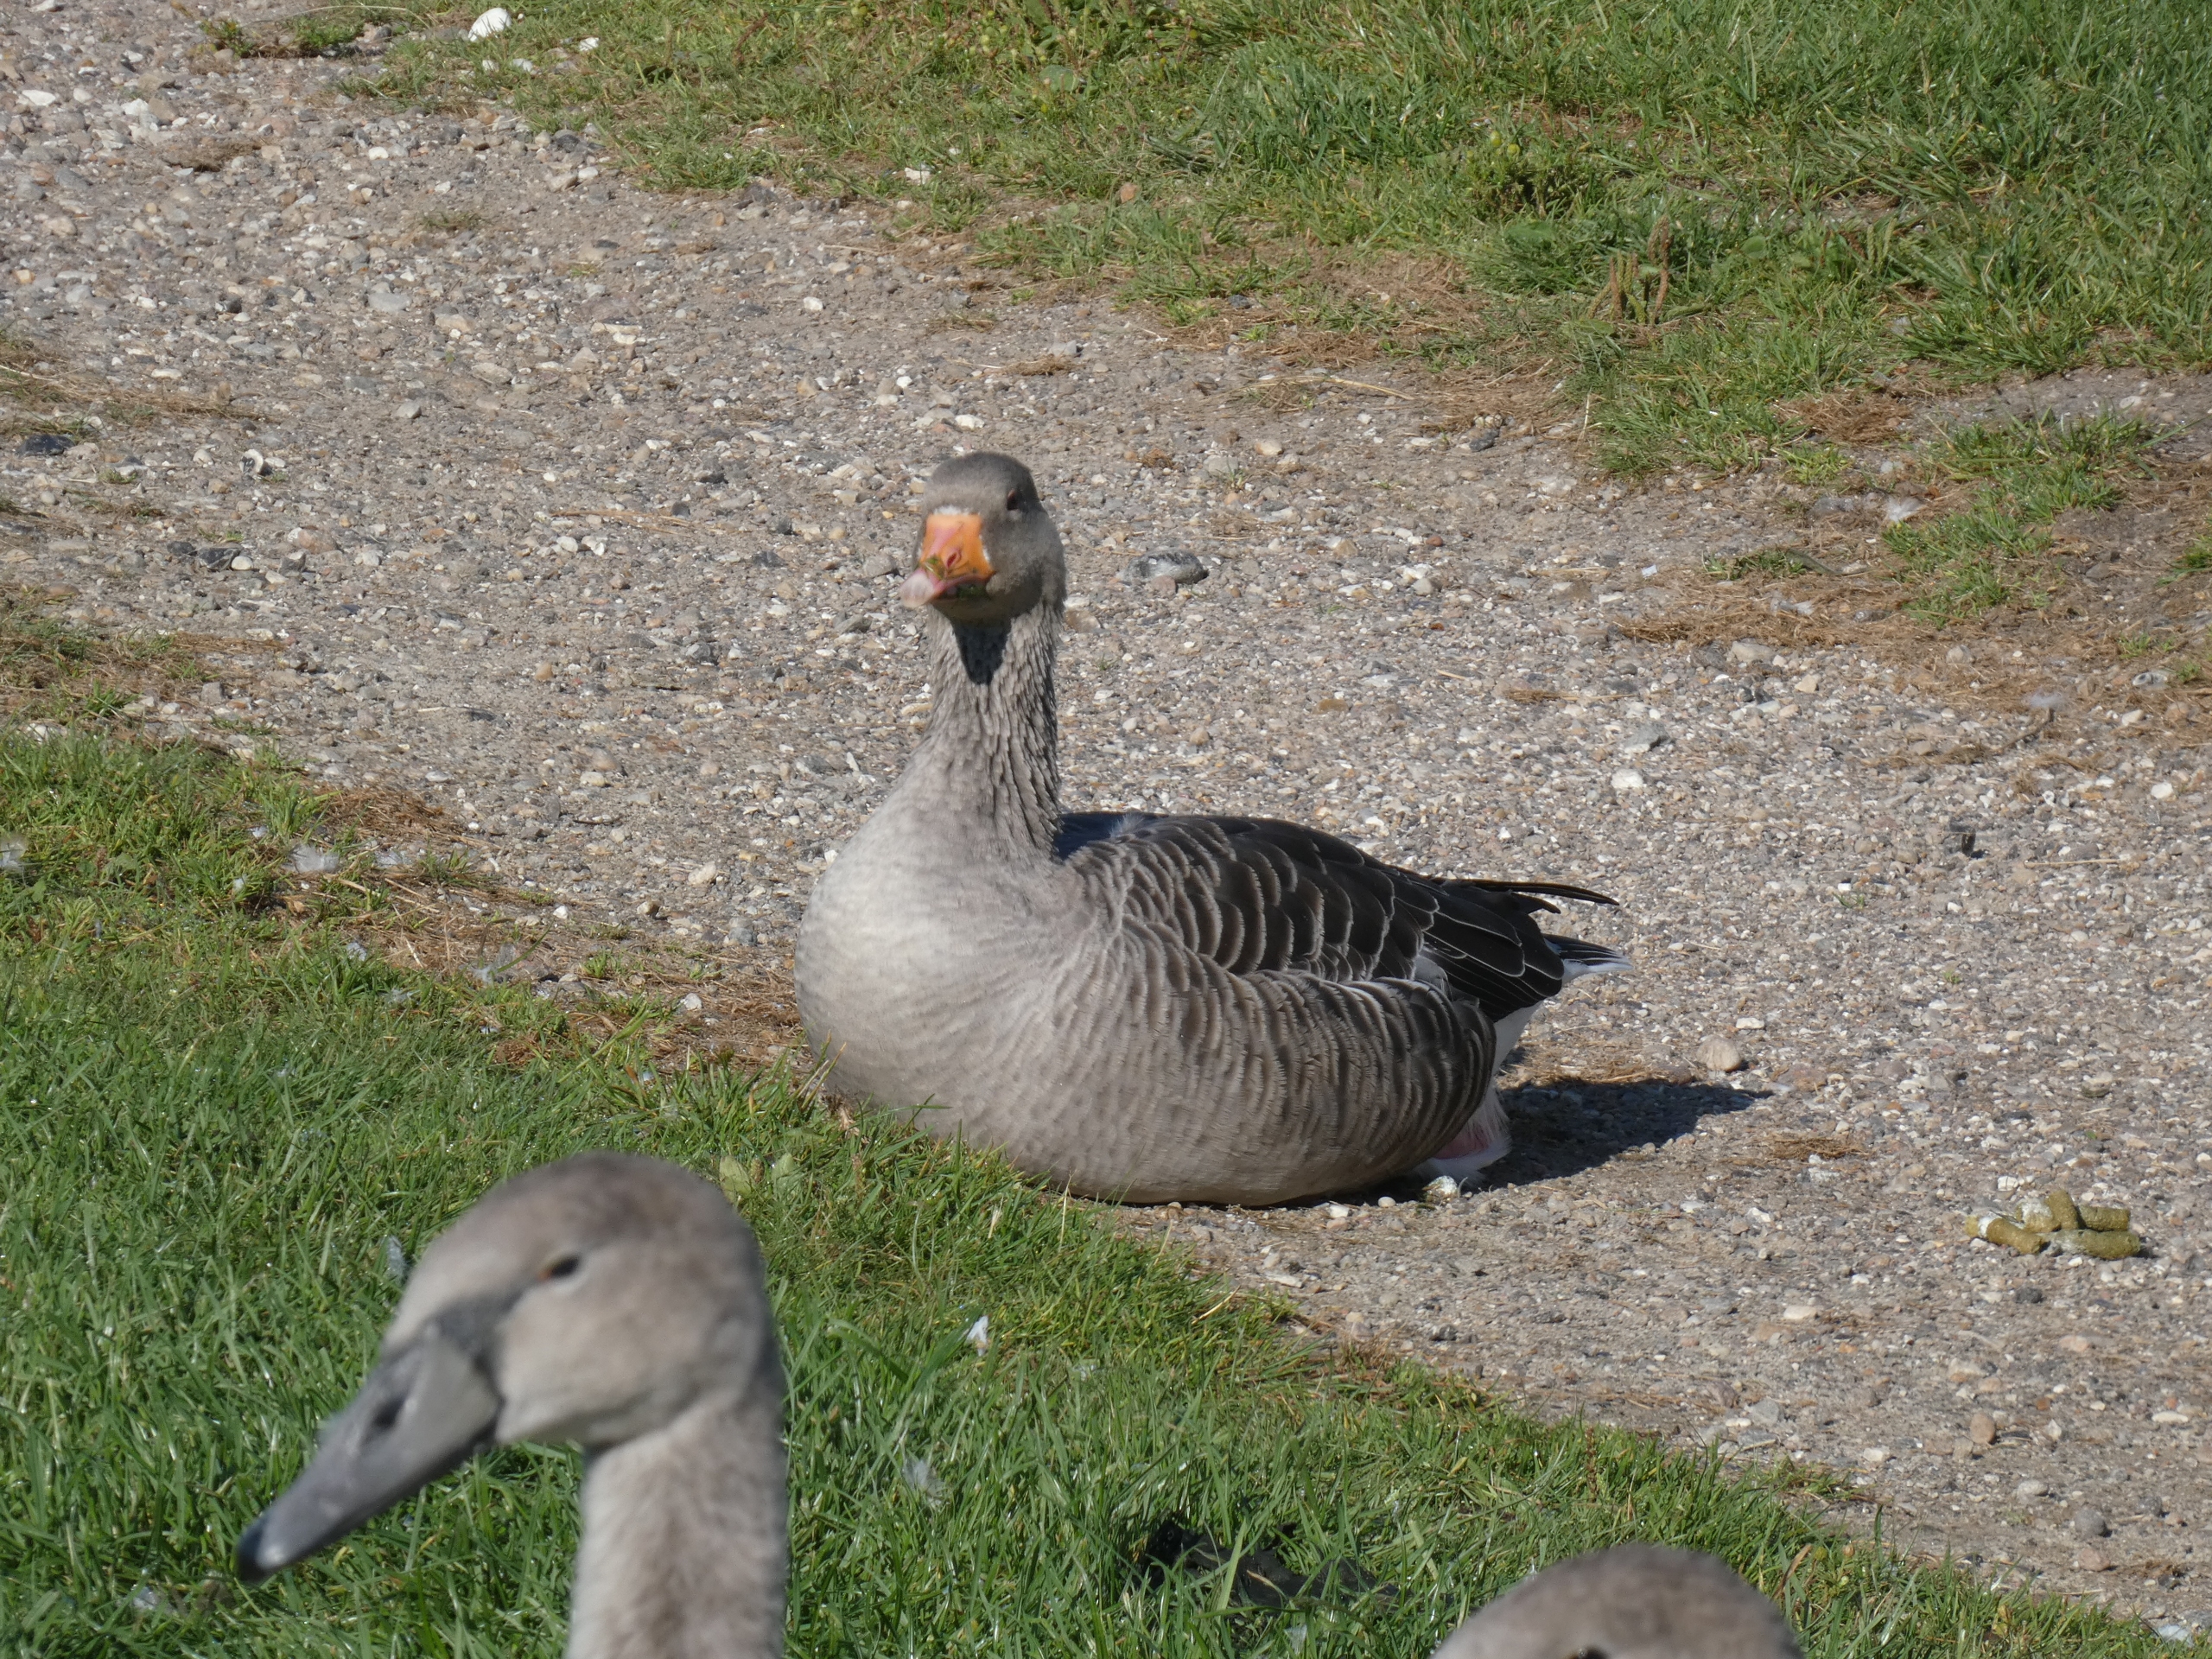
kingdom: Animalia
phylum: Chordata
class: Aves
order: Anseriformes
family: Anatidae
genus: Anser
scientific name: Anser anser
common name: Grågås
